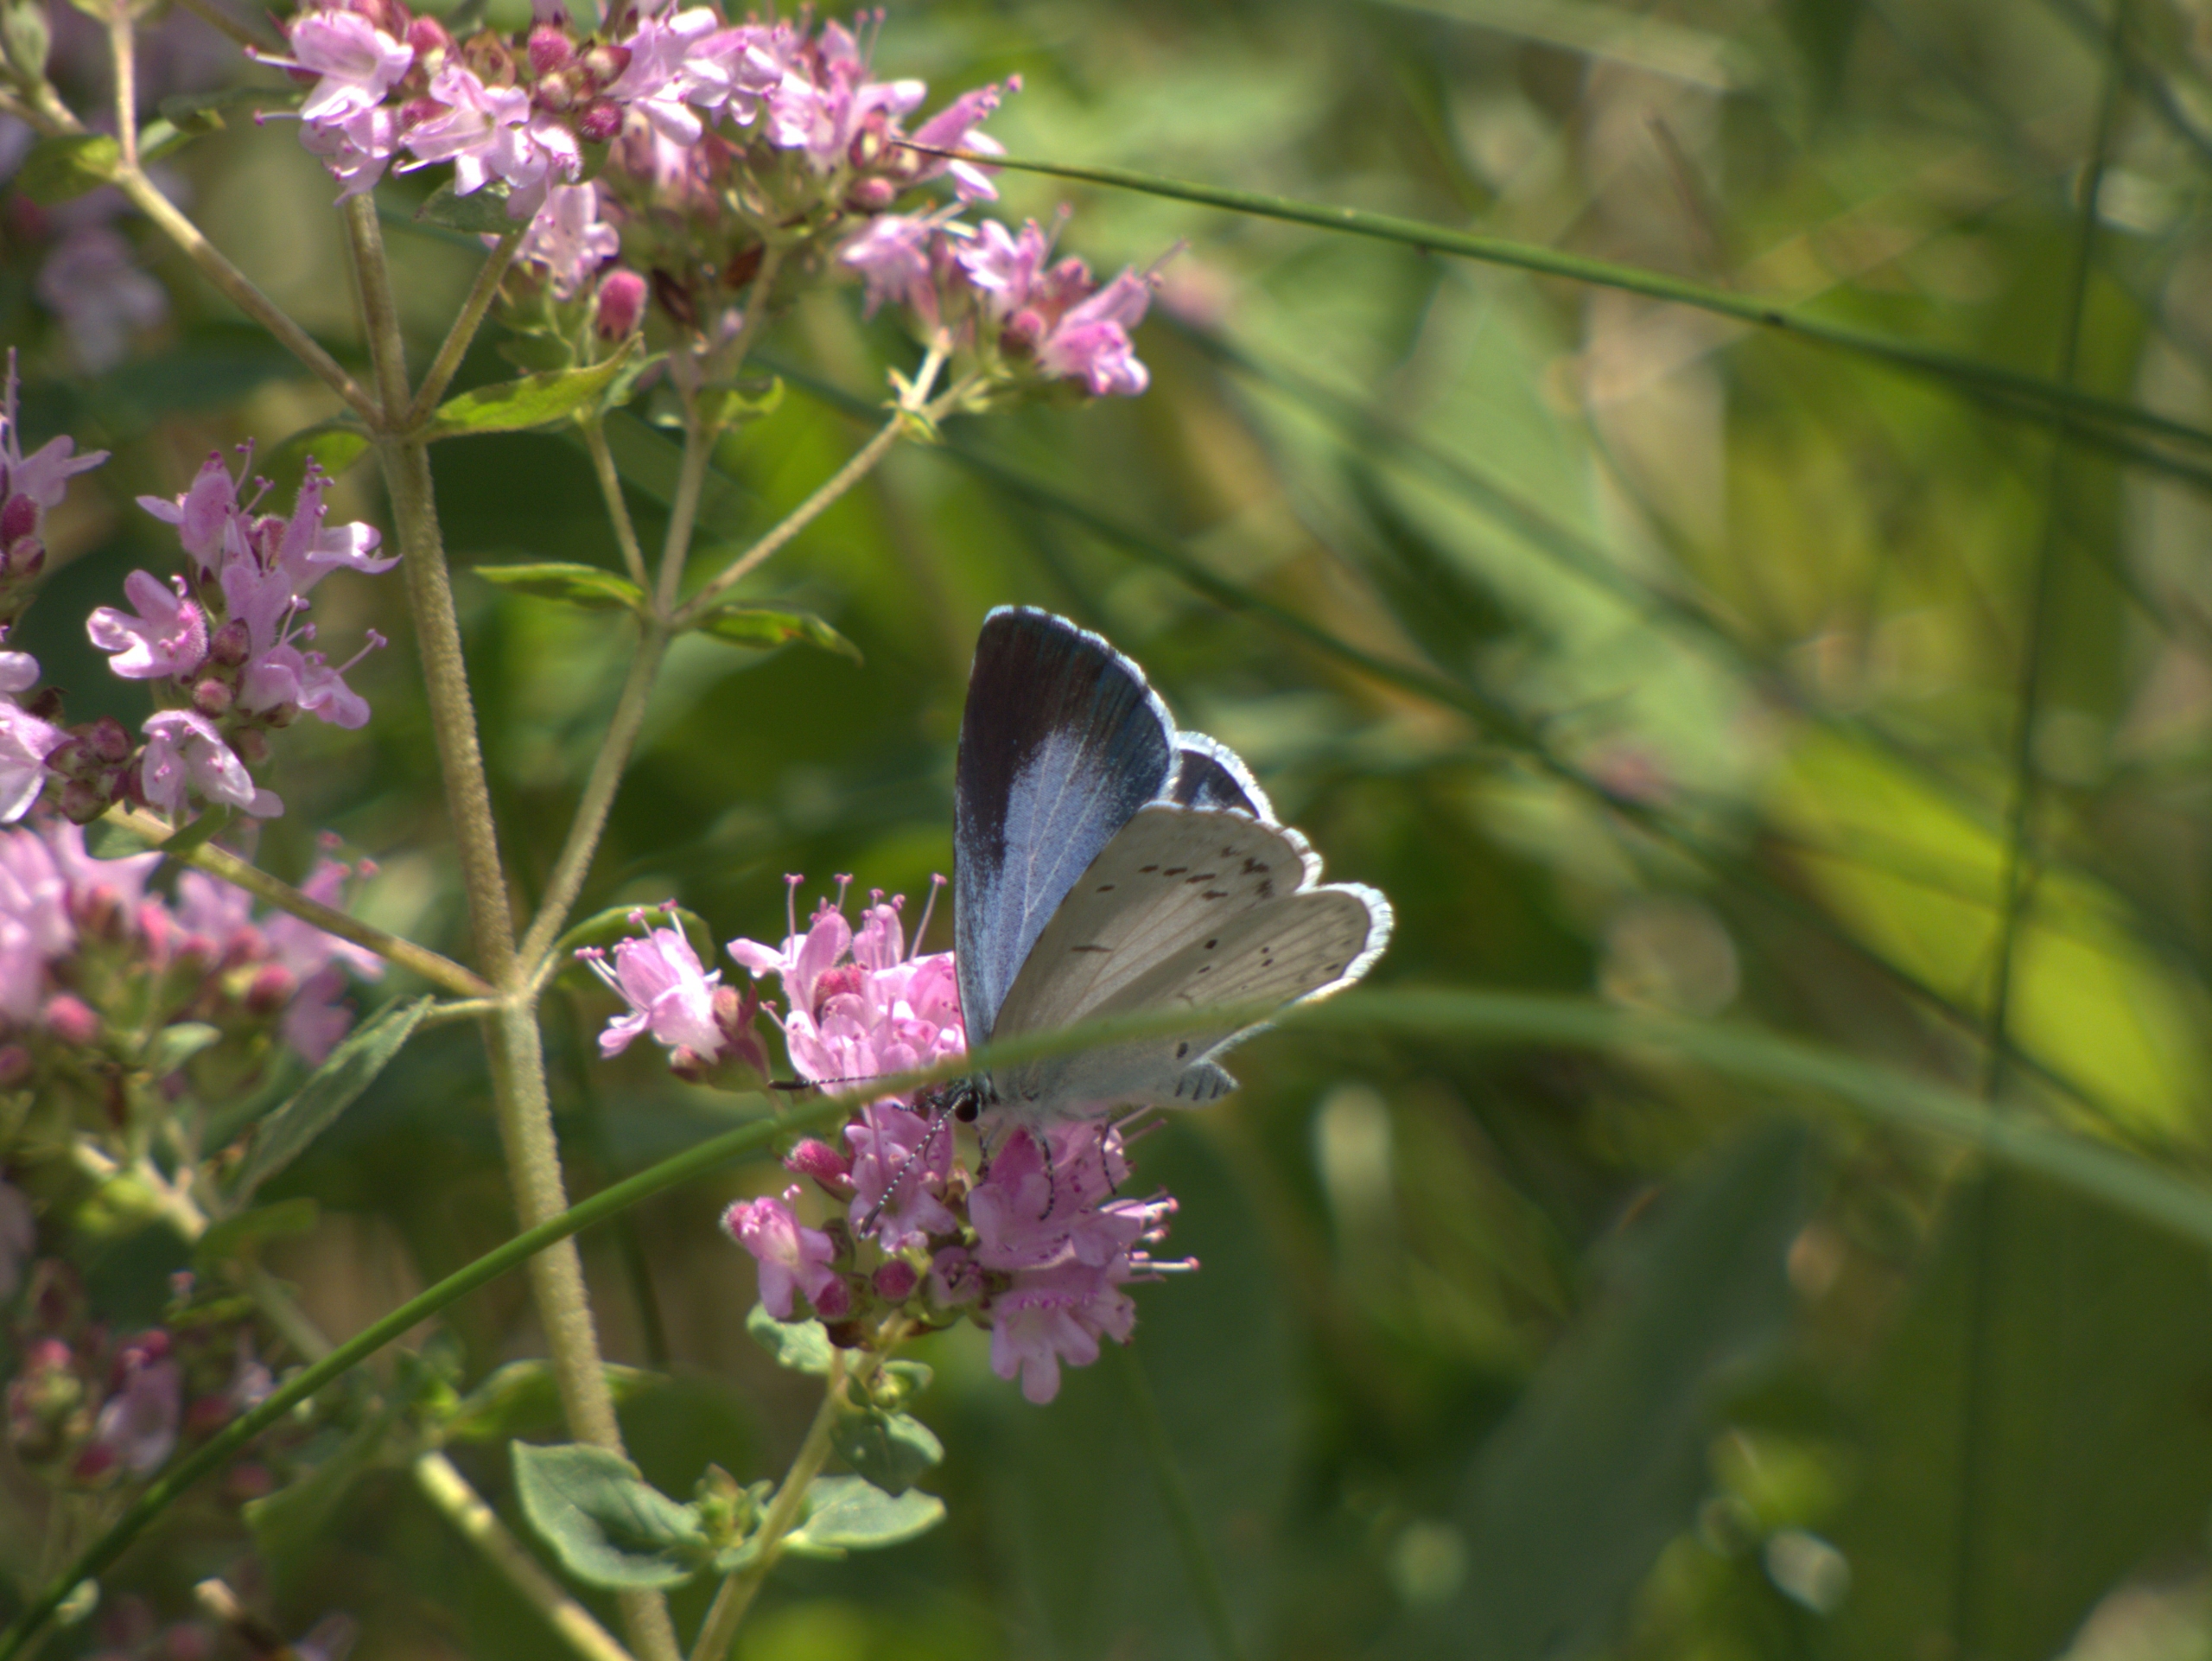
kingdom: Animalia
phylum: Arthropoda
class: Insecta
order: Lepidoptera
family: Lycaenidae
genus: Celastrina
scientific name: Celastrina argiolus
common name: Skovblåfugl
